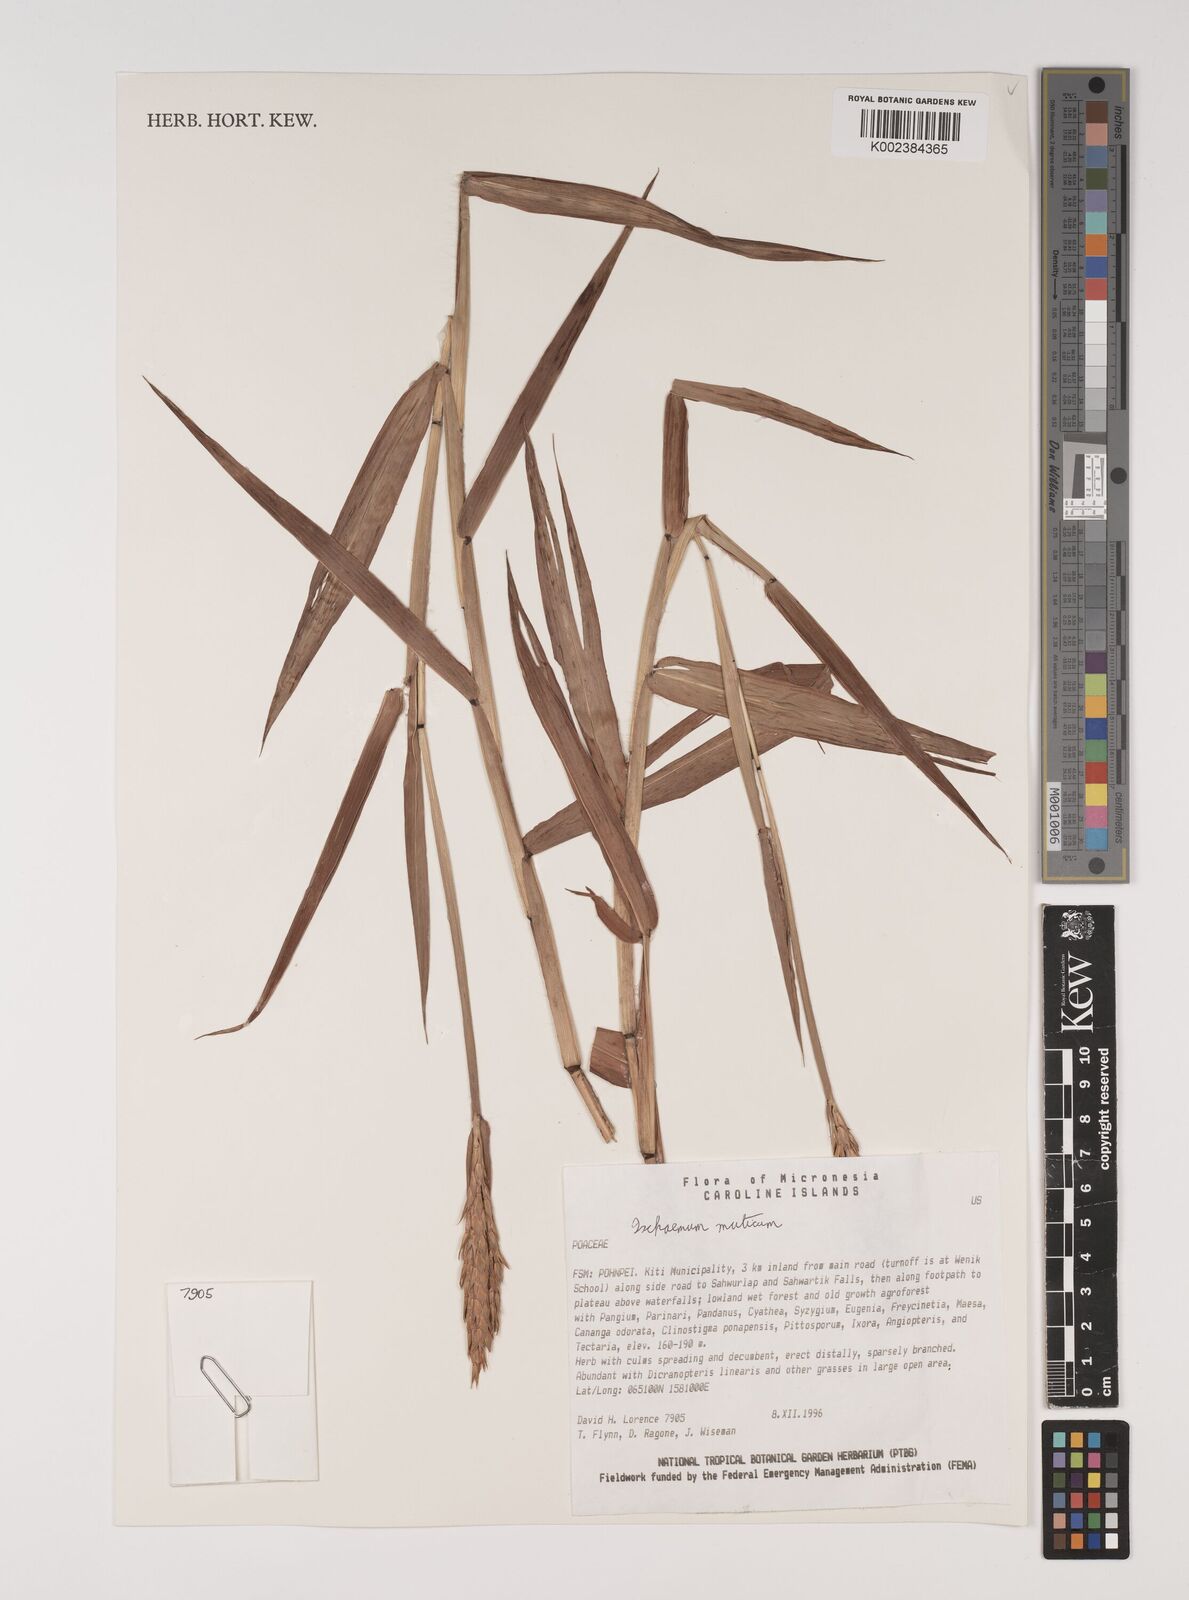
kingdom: Plantae
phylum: Tracheophyta
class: Liliopsida
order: Poales
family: Poaceae
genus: Ischaemum
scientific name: Ischaemum muticum
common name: Drought grass
